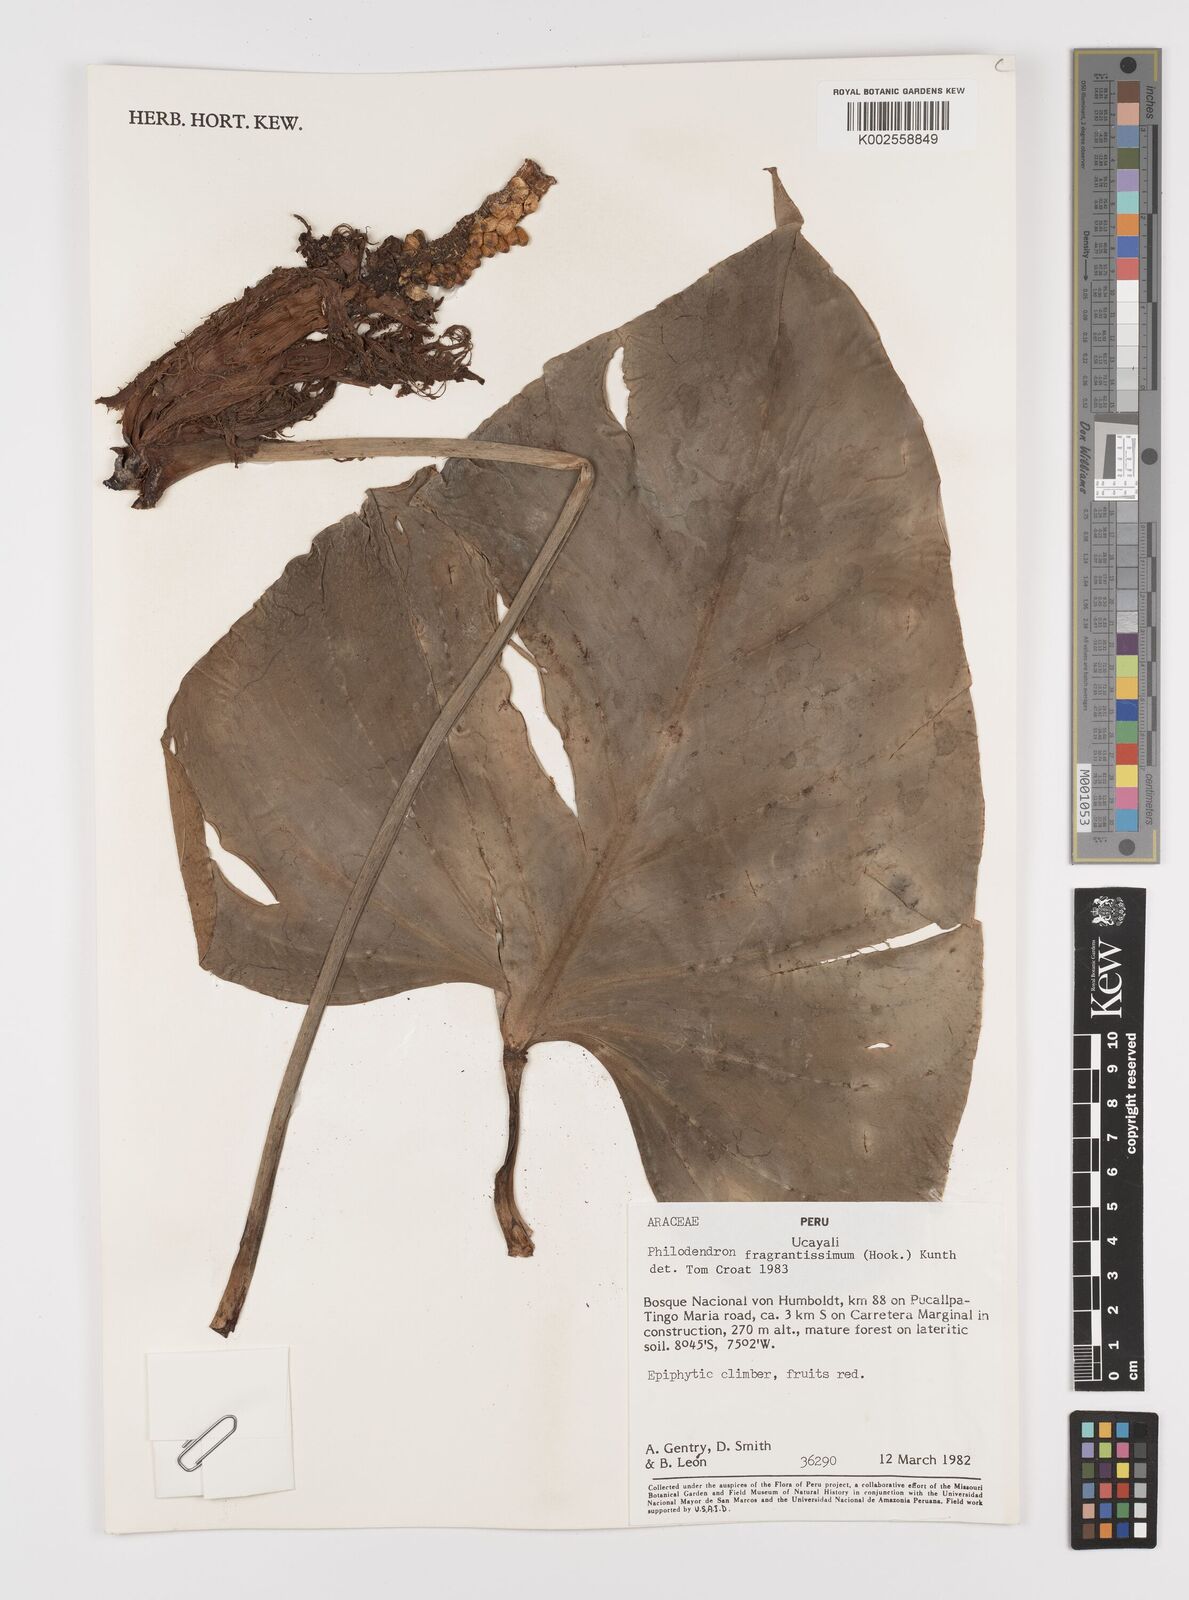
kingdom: Plantae
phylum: Tracheophyta
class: Liliopsida
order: Alismatales
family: Araceae
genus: Philodendron
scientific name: Philodendron fragrantissimum
